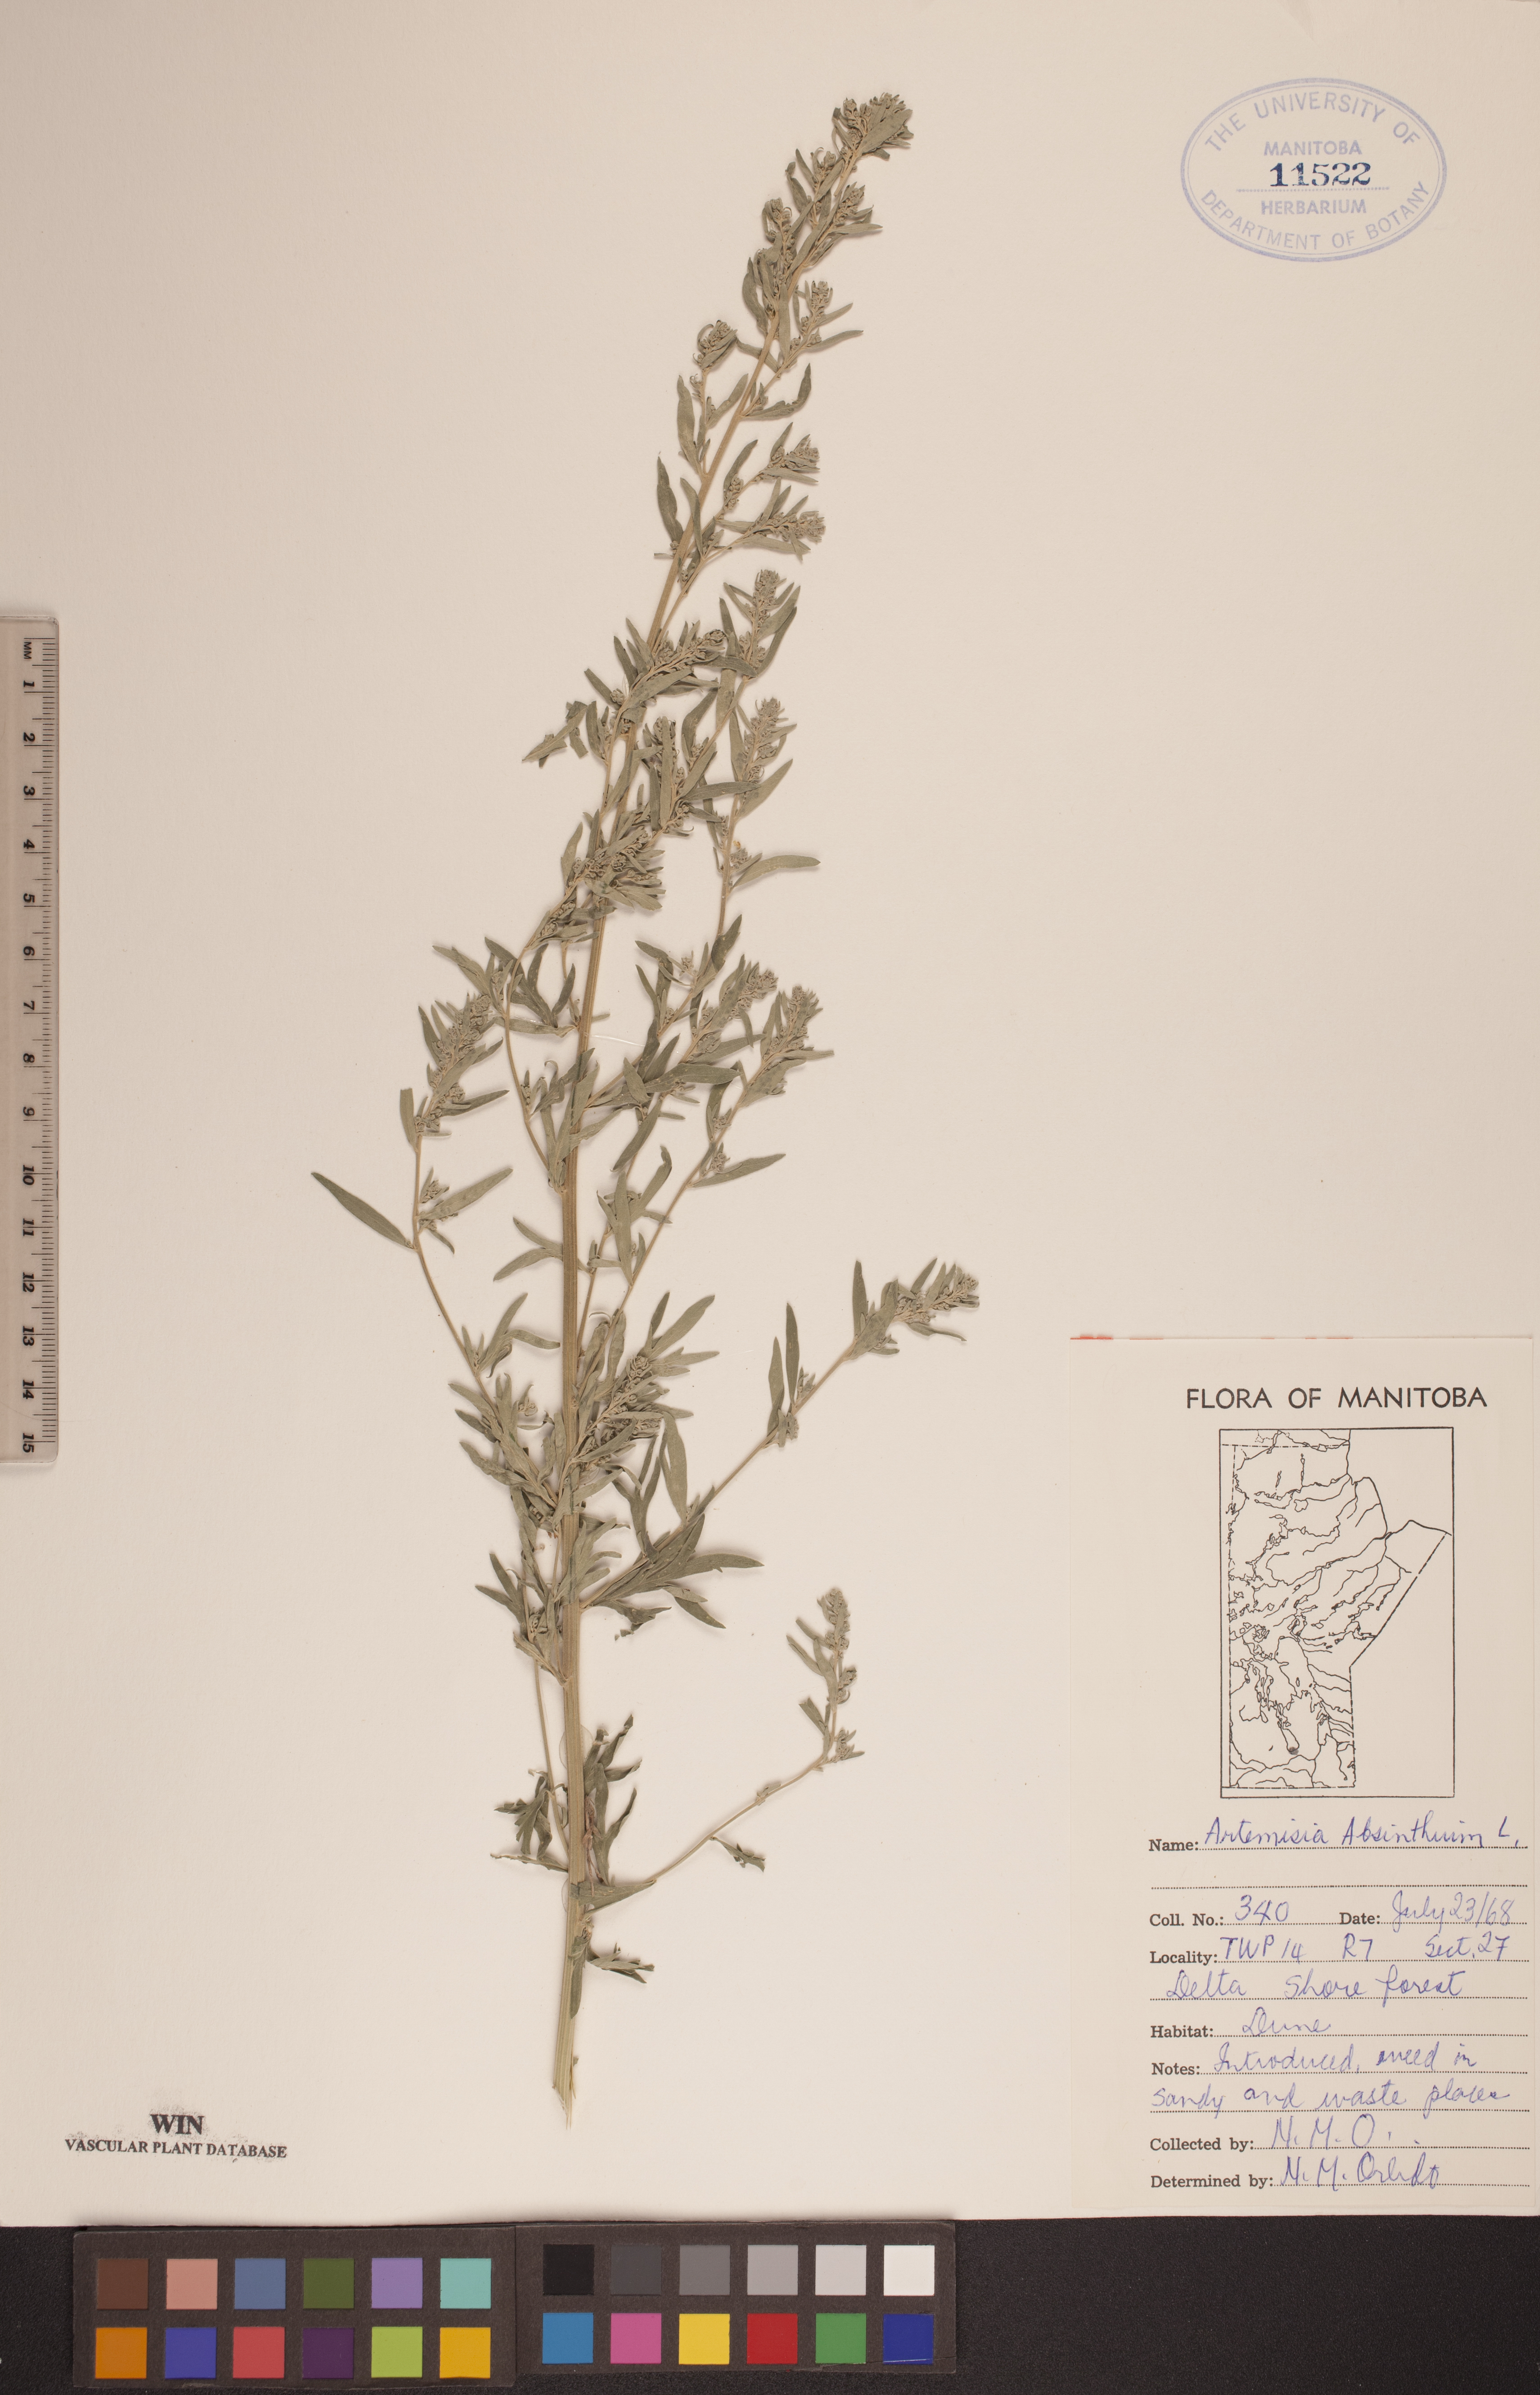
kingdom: Plantae
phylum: Tracheophyta
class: Magnoliopsida
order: Asterales
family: Asteraceae
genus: Artemisia
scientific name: Artemisia absinthium
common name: Wormwood
